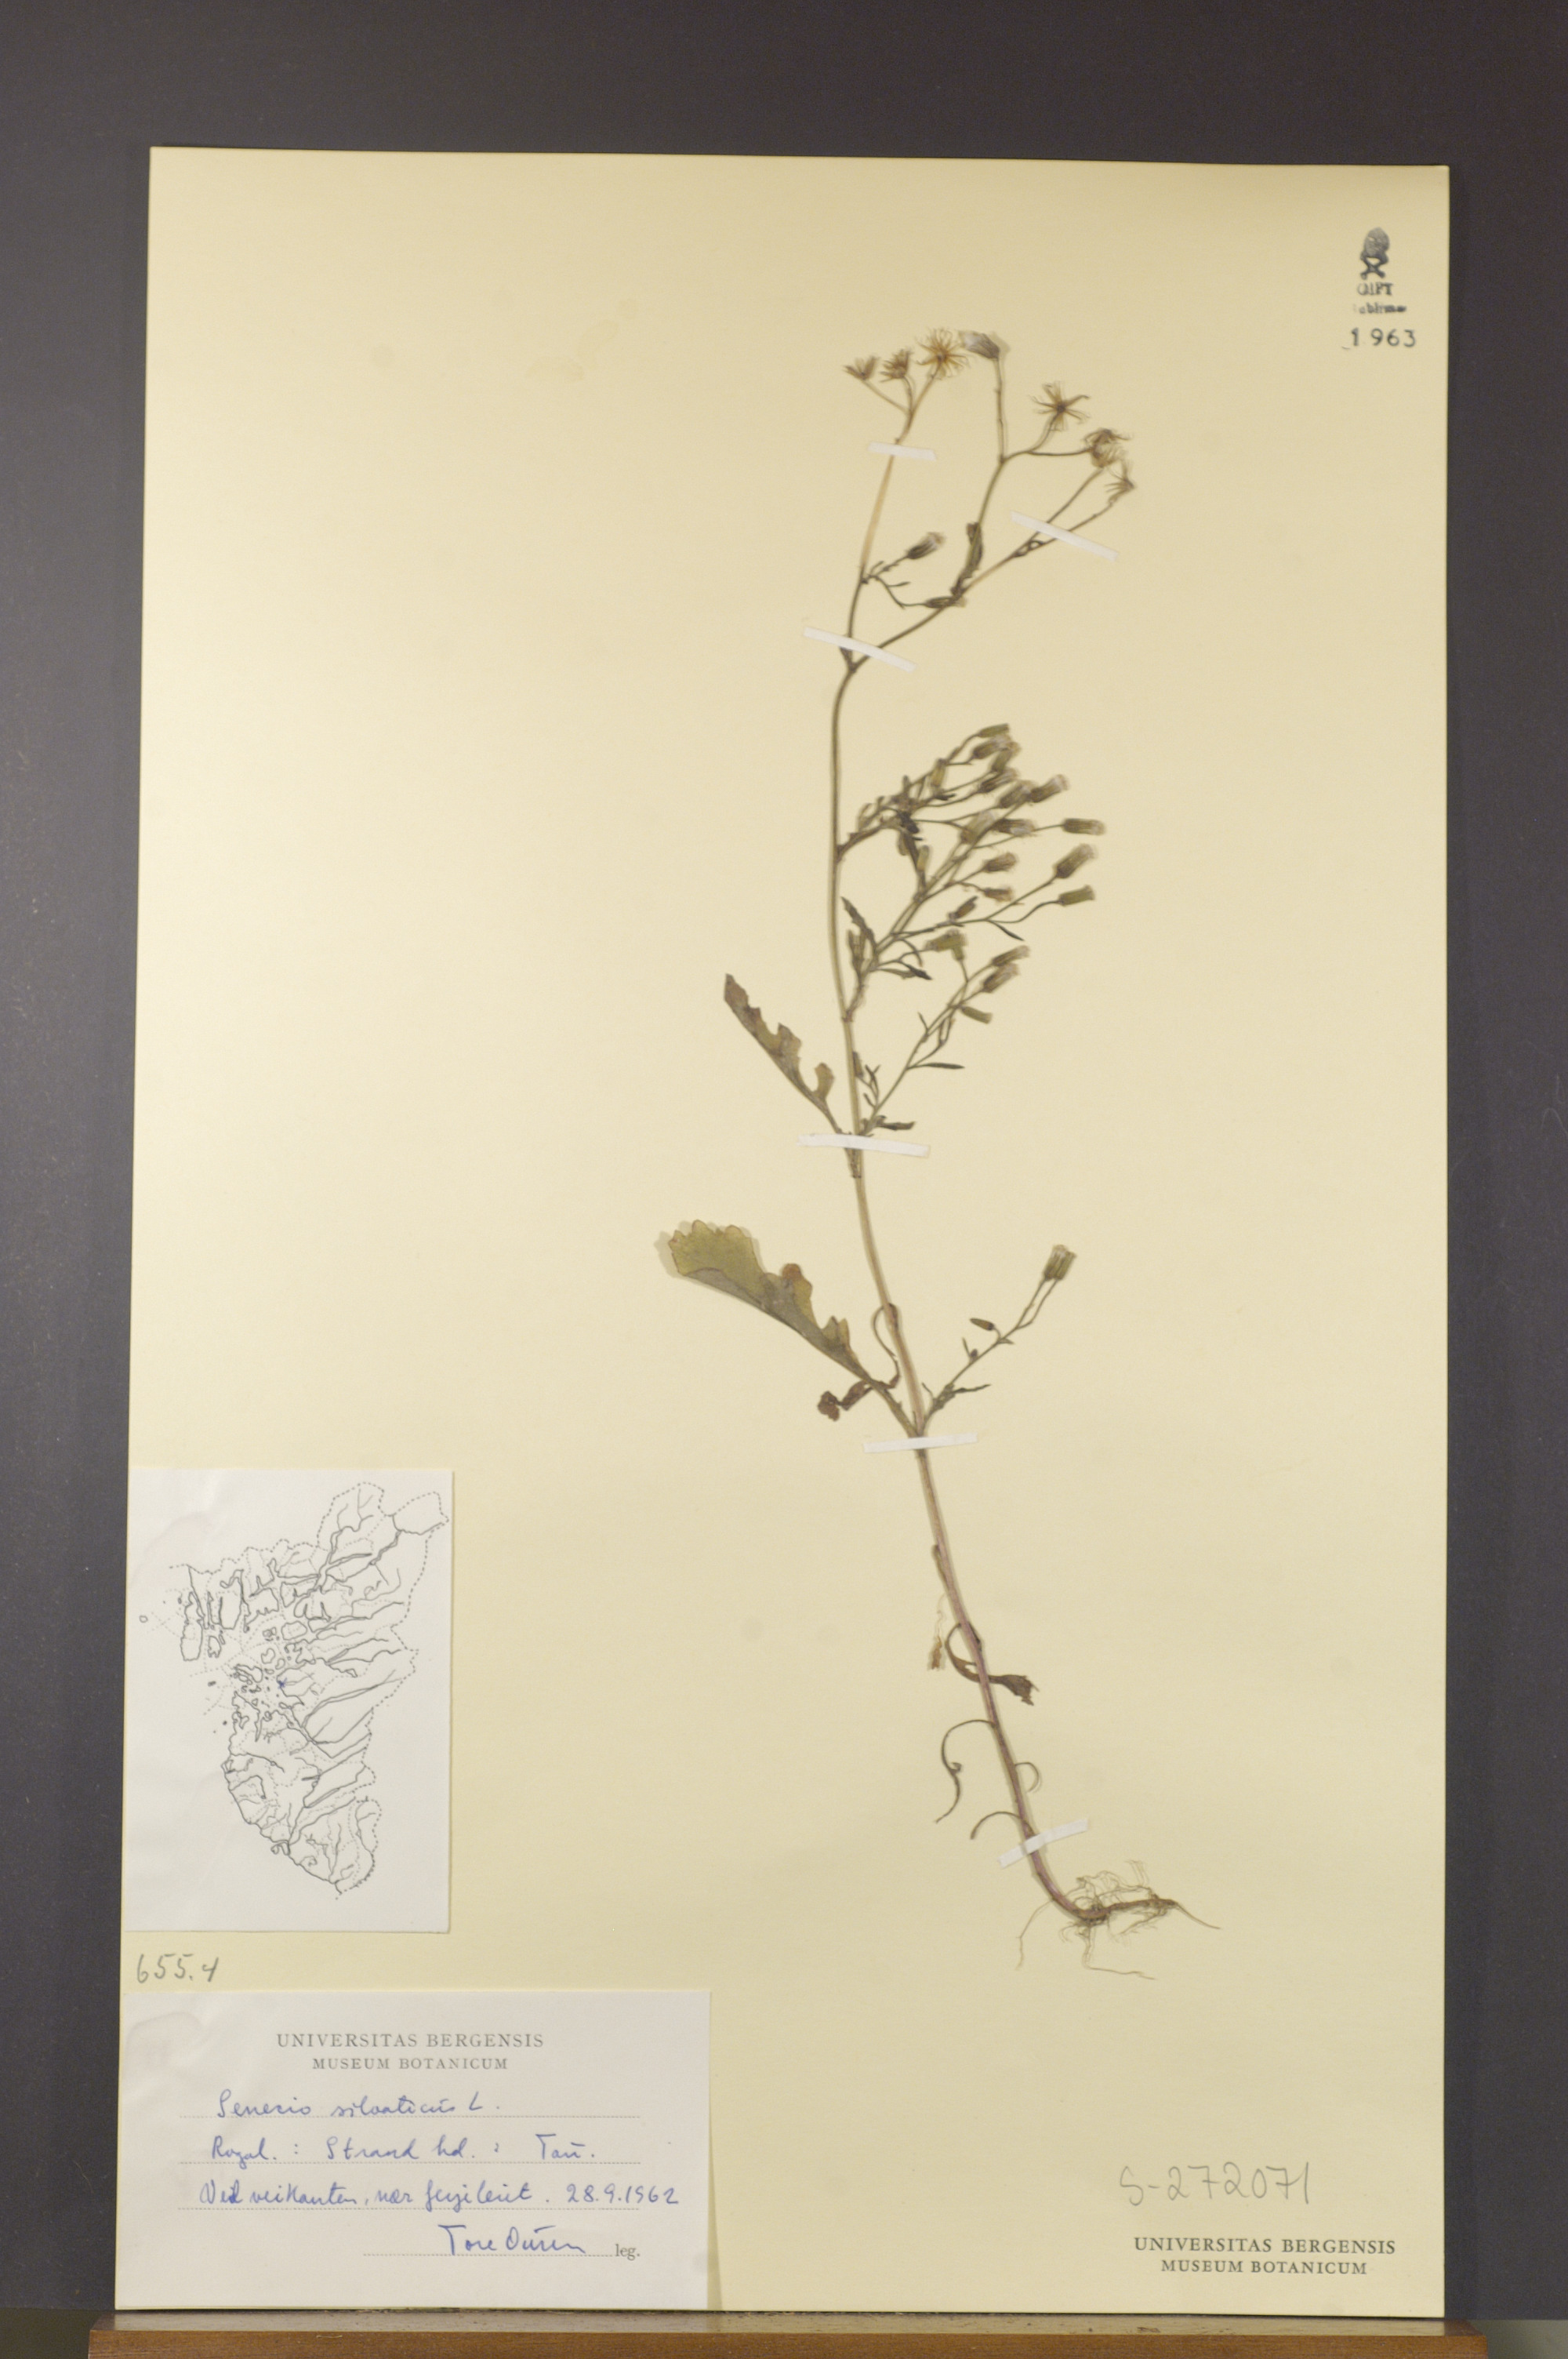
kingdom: Plantae
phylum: Tracheophyta
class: Magnoliopsida
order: Asterales
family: Asteraceae
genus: Senecio
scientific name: Senecio sylvaticus
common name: Woodland ragwort
